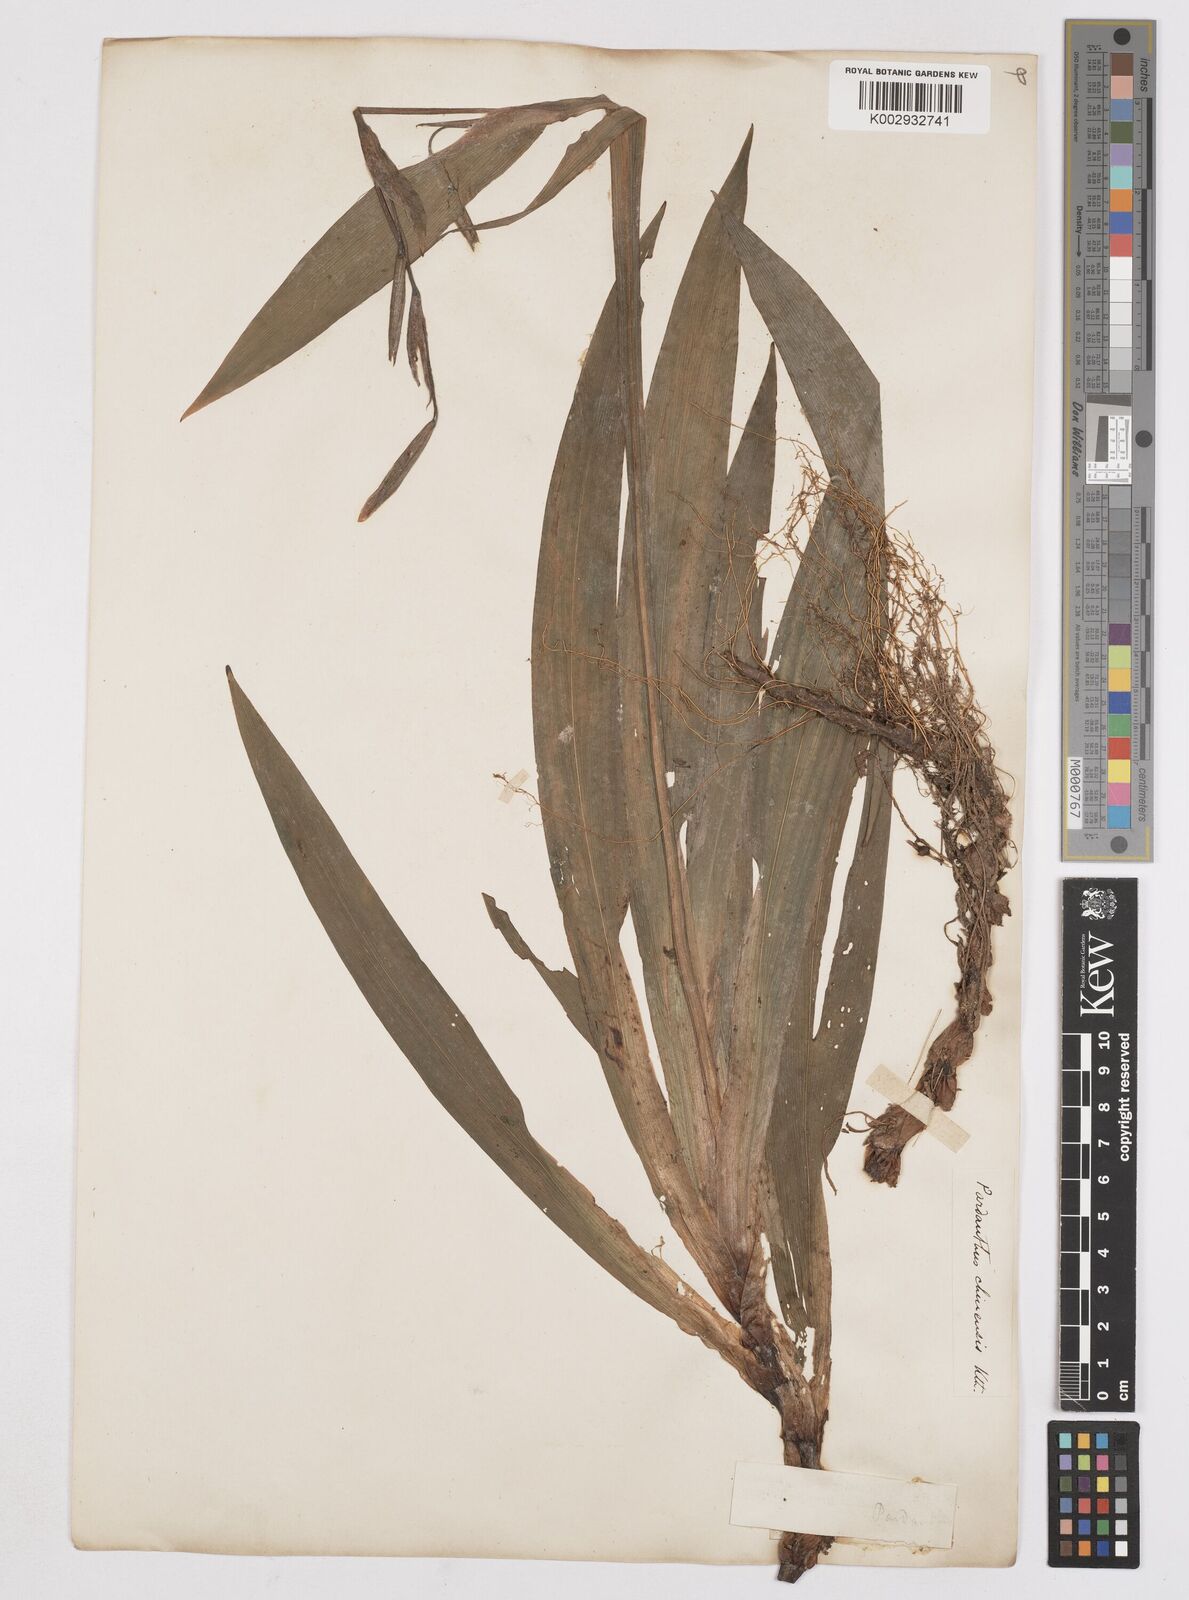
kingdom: Plantae
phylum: Tracheophyta
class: Liliopsida
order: Asparagales
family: Iridaceae
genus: Iris
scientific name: Iris
